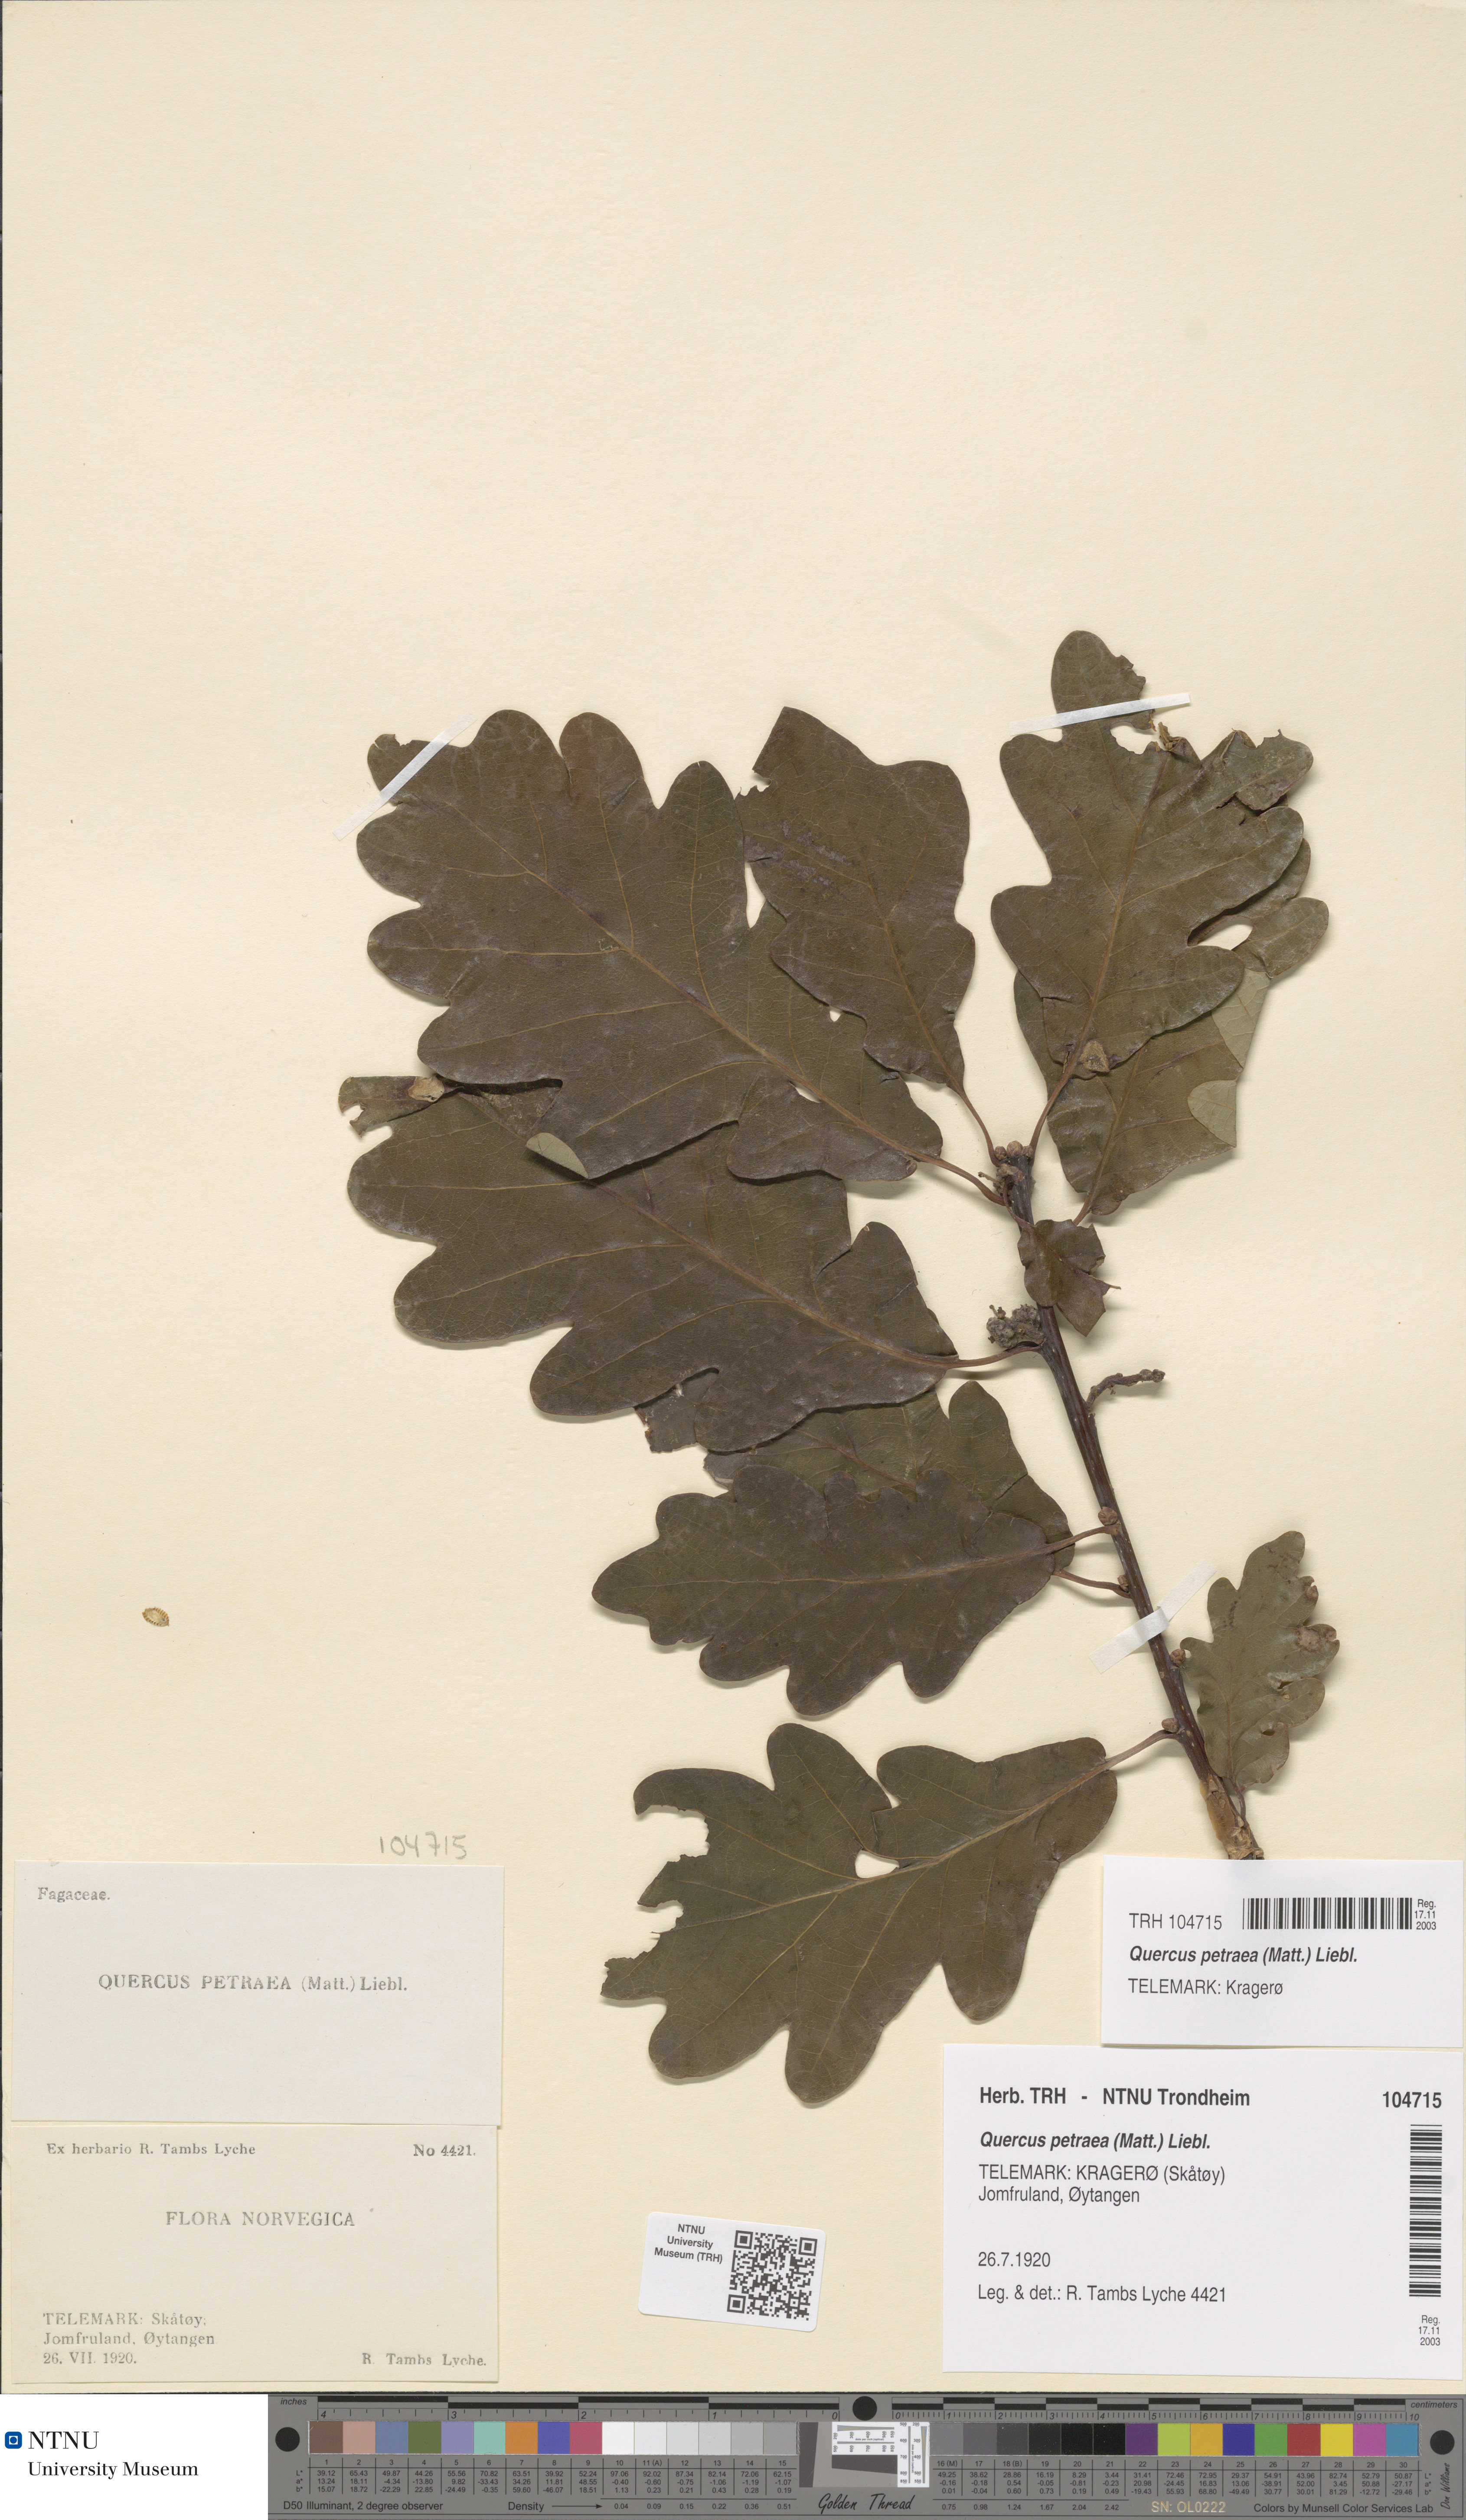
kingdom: Plantae
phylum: Tracheophyta
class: Magnoliopsida
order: Fagales
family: Fagaceae
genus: Quercus
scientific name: Quercus petraea
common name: Sessile oak
